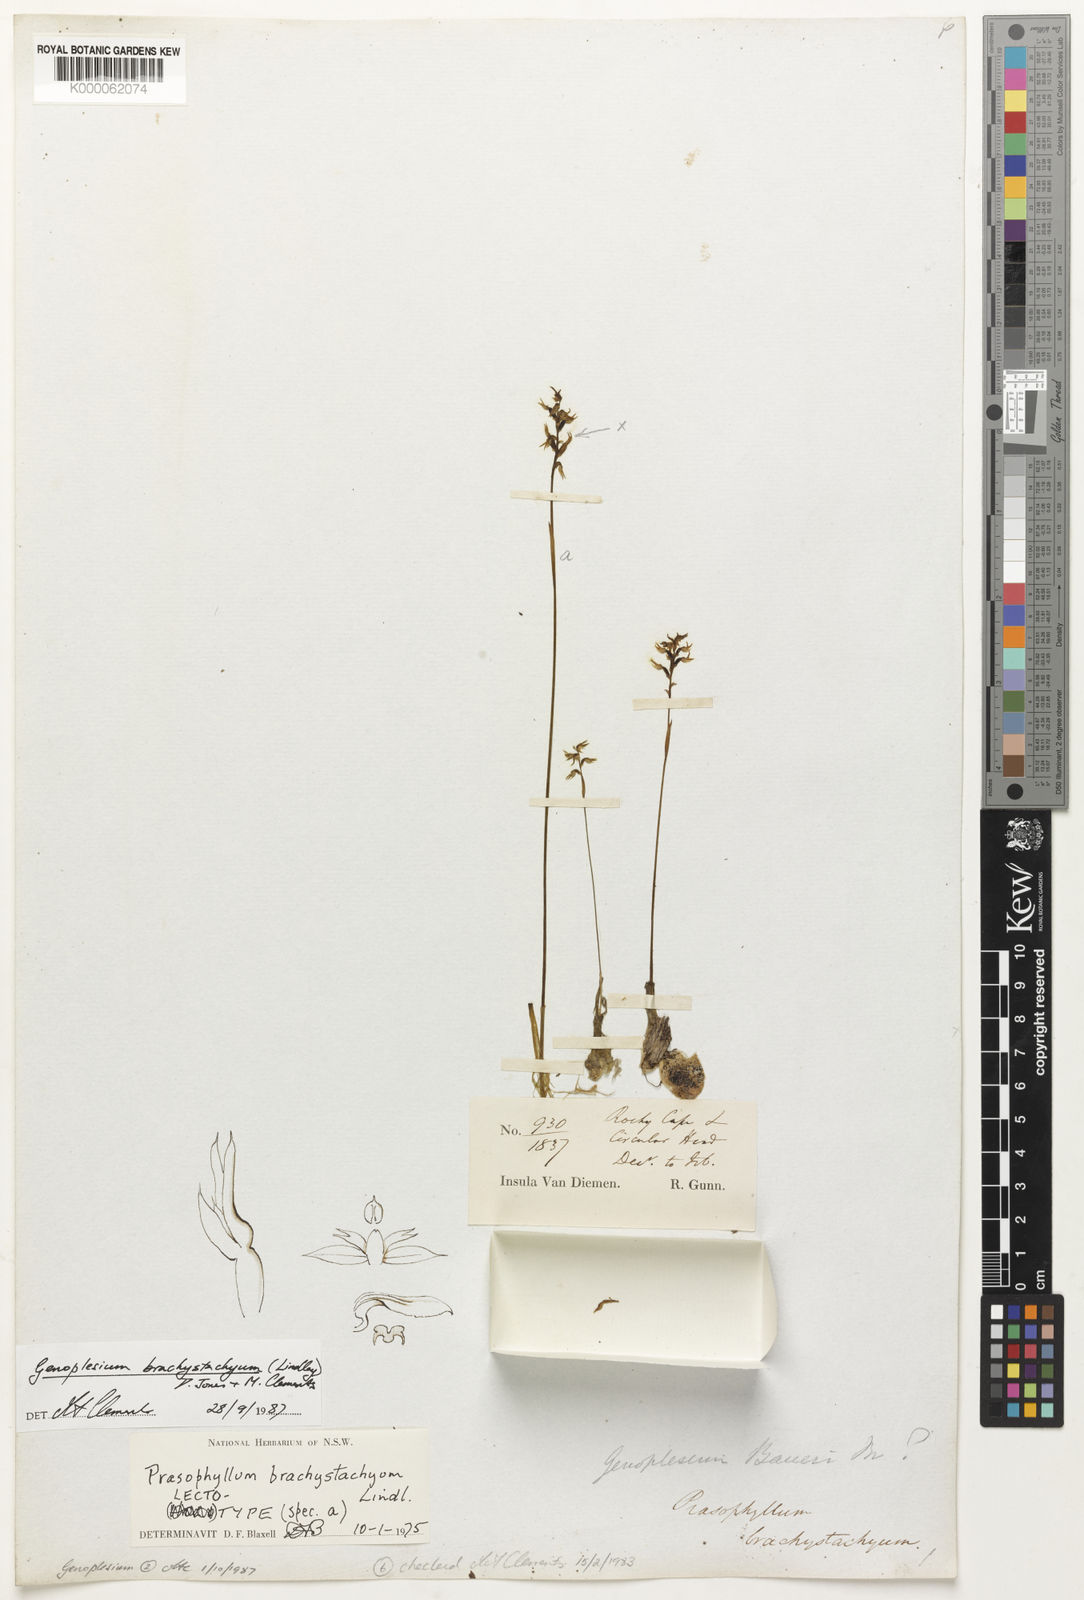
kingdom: Plantae
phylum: Tracheophyta
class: Liliopsida
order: Asparagales
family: Orchidaceae
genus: Genoplesium
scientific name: Genoplesium baueri
